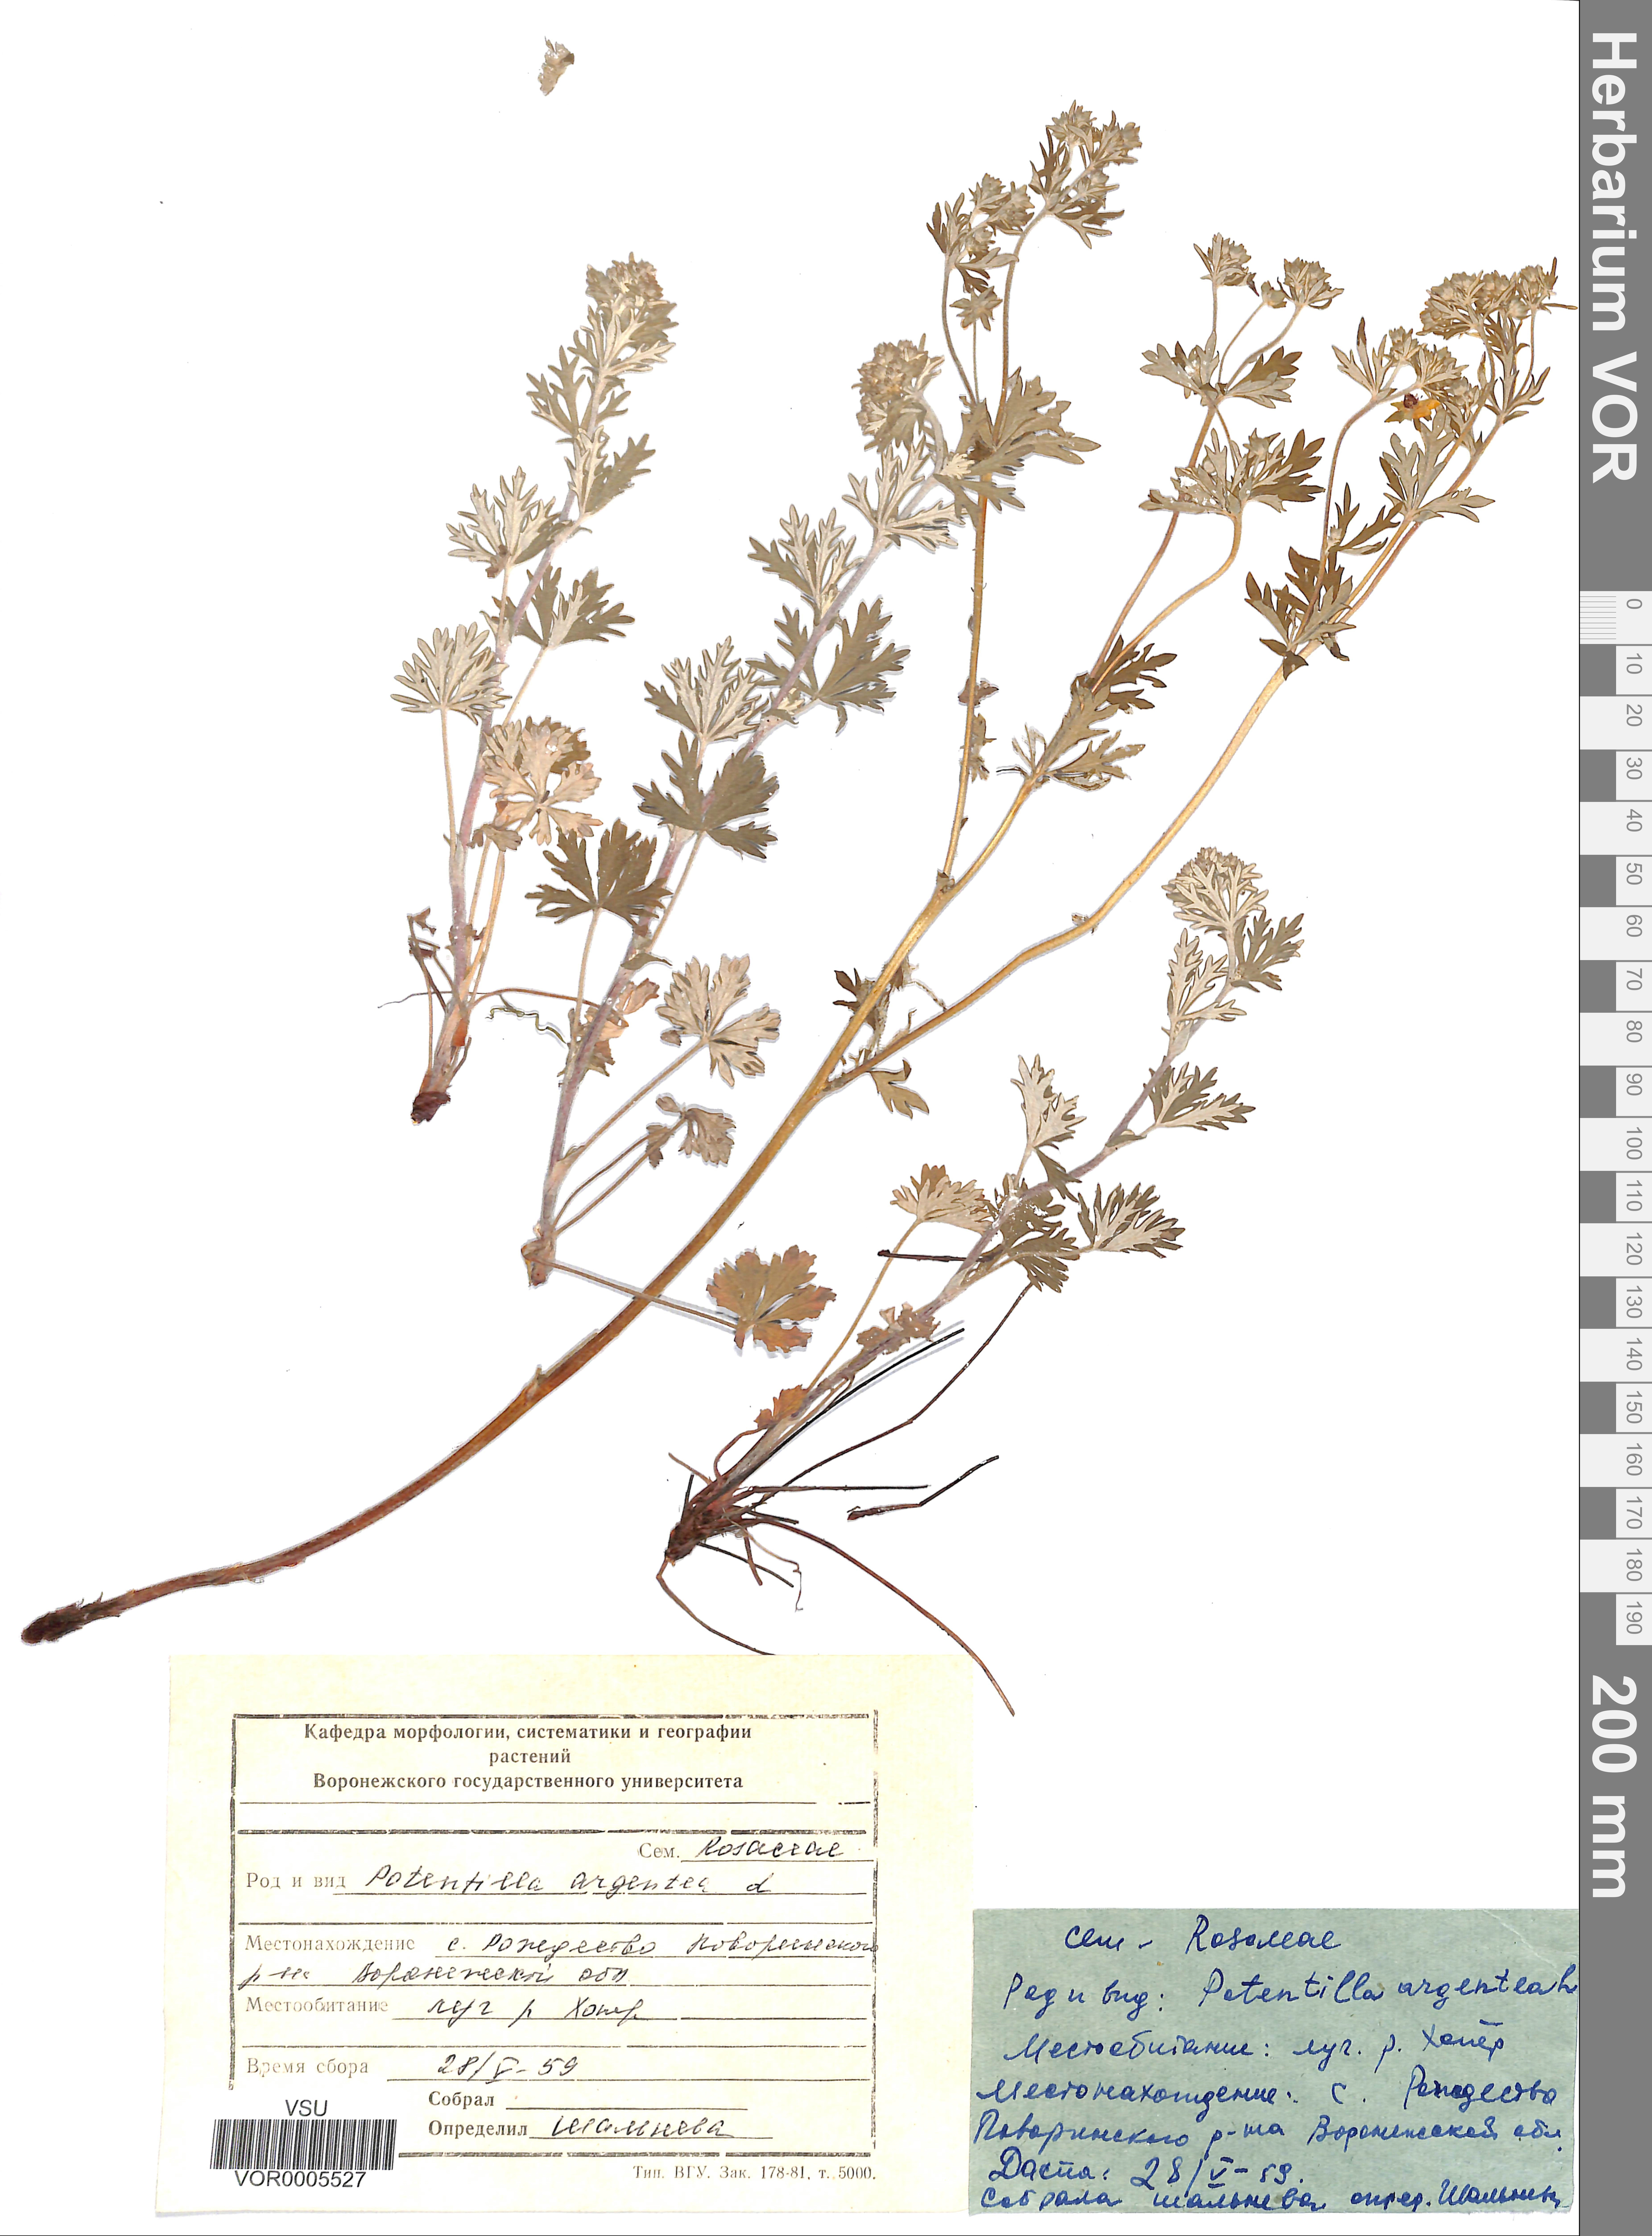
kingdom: Plantae
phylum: Tracheophyta
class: Magnoliopsida
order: Rosales
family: Rosaceae
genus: Potentilla
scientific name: Potentilla argentea
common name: Hoary cinquefoil
